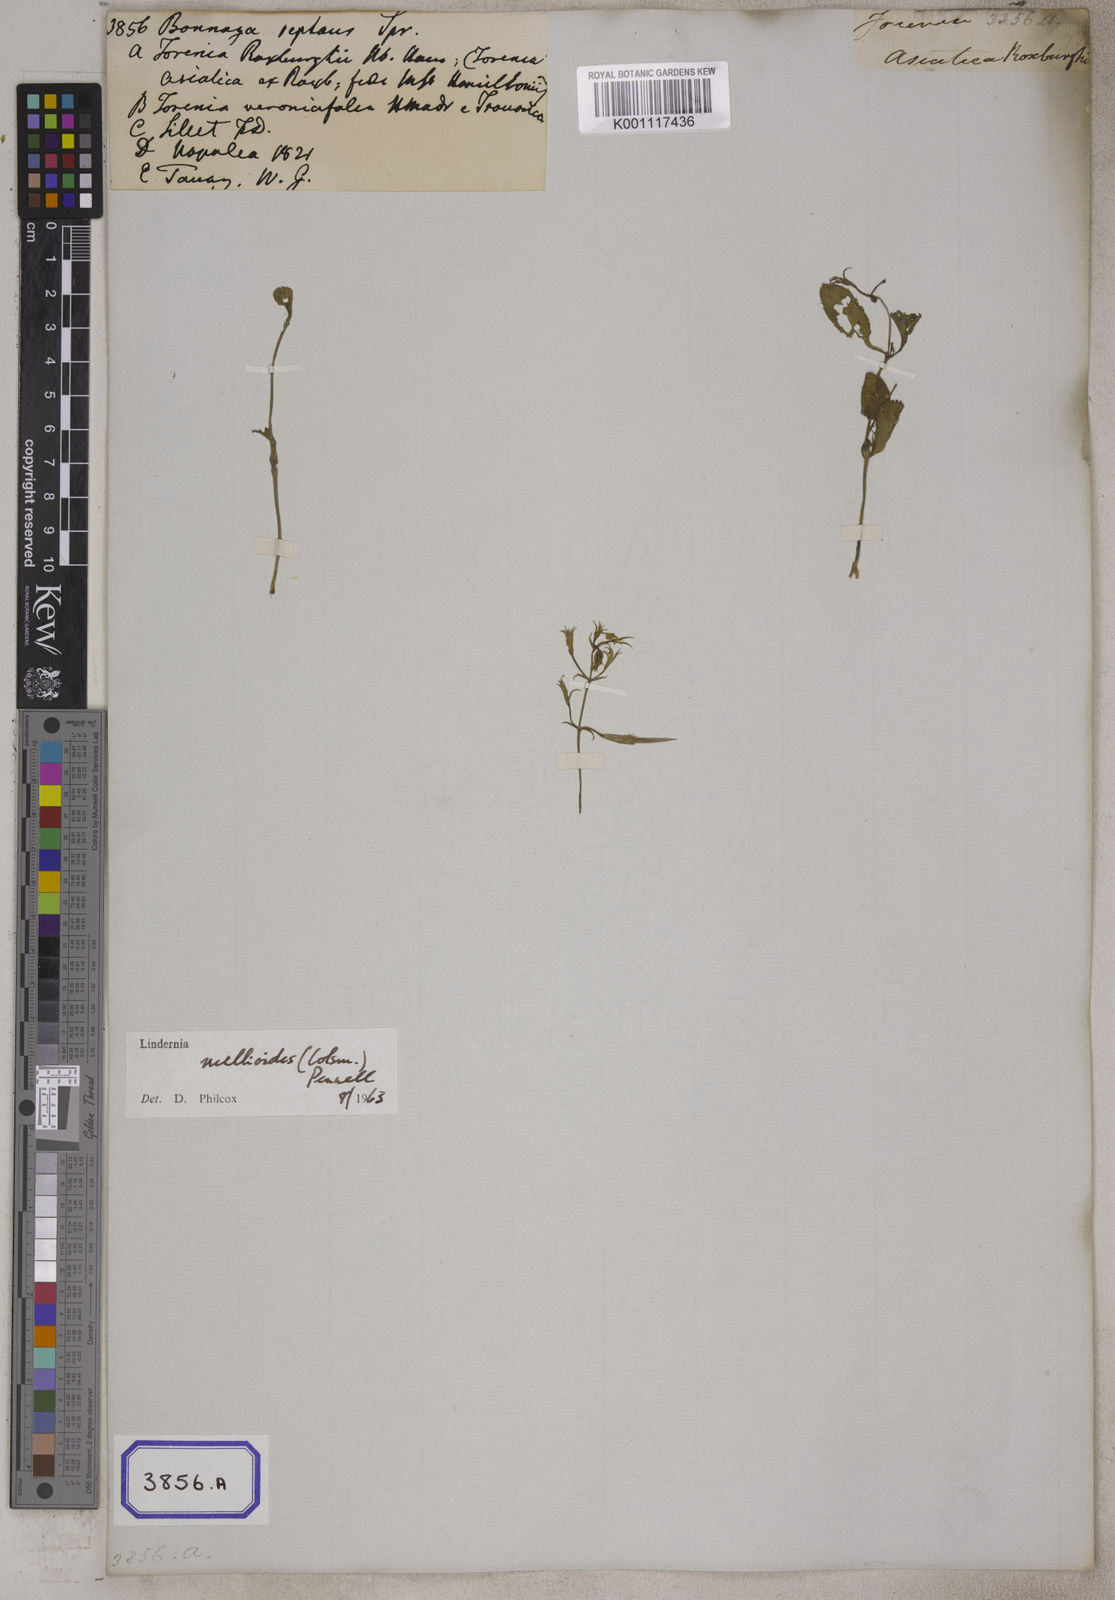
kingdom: Plantae
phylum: Tracheophyta
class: Magnoliopsida
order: Lamiales
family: Linderniaceae
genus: Bonnaya
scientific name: Bonnaya ruellioides
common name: Duckbill pimpernel
